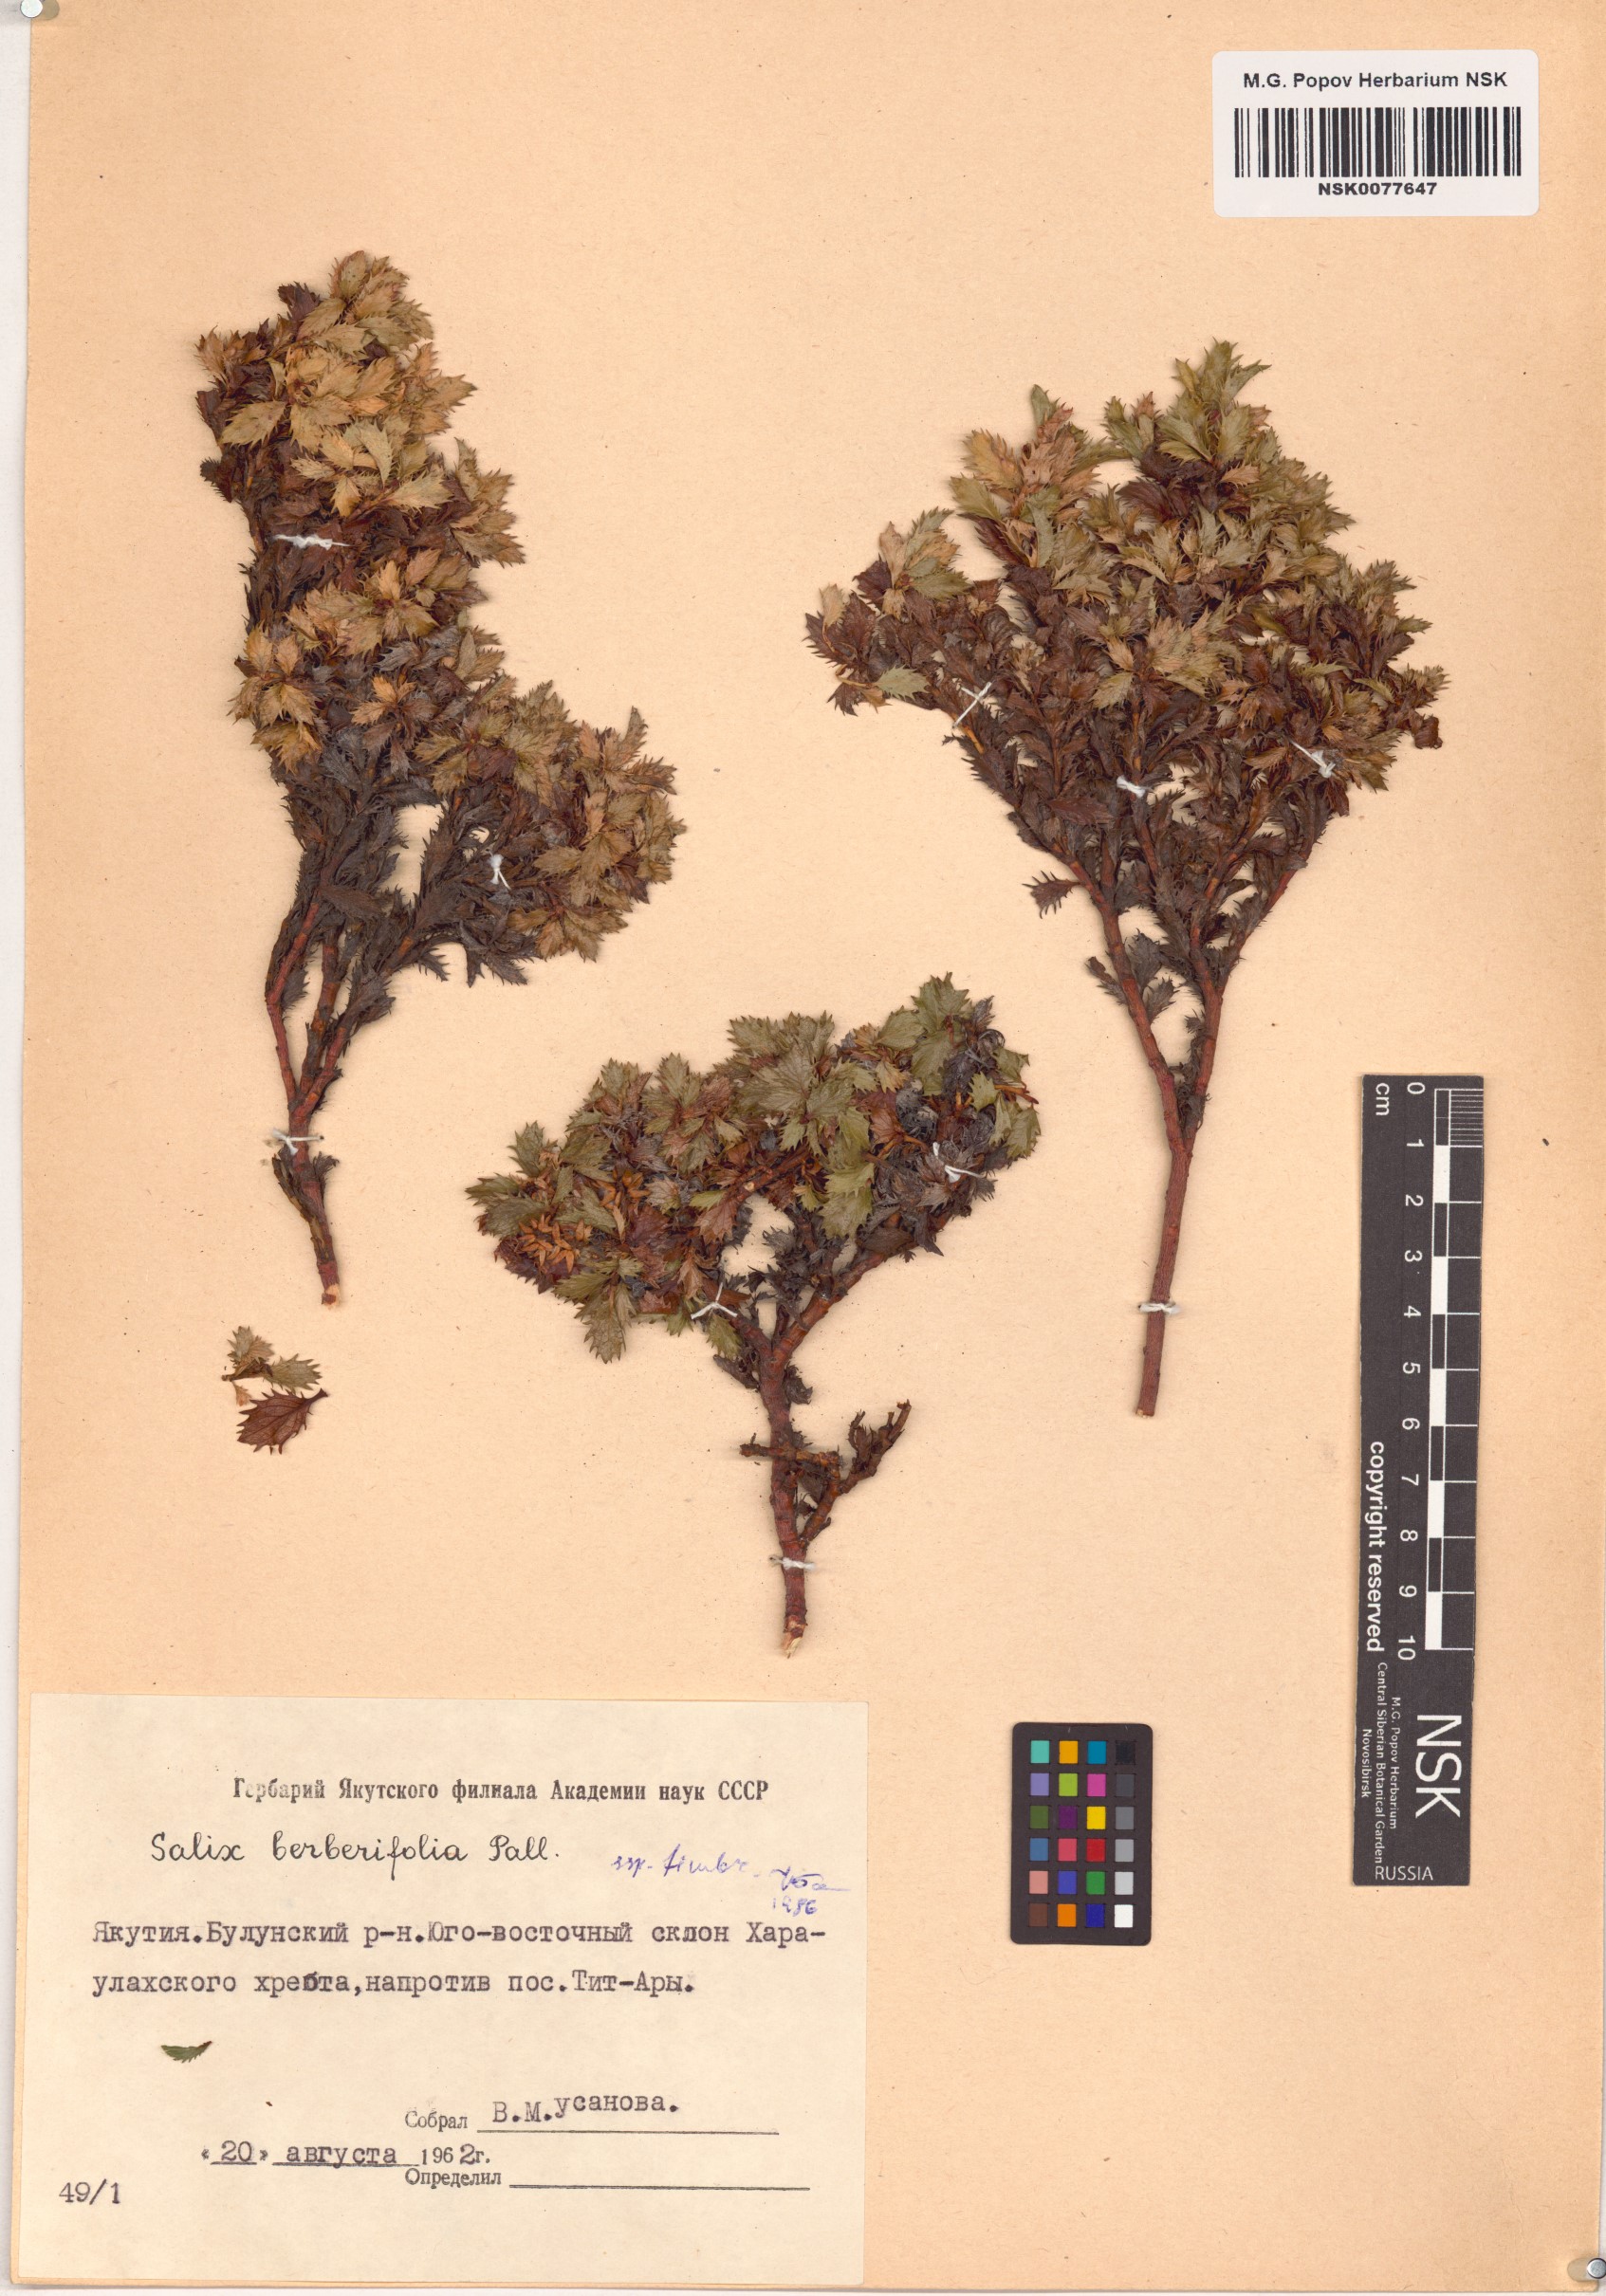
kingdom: Plantae
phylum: Tracheophyta
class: Magnoliopsida
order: Malpighiales
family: Salicaceae
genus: Salix
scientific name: Salix berberifolia
